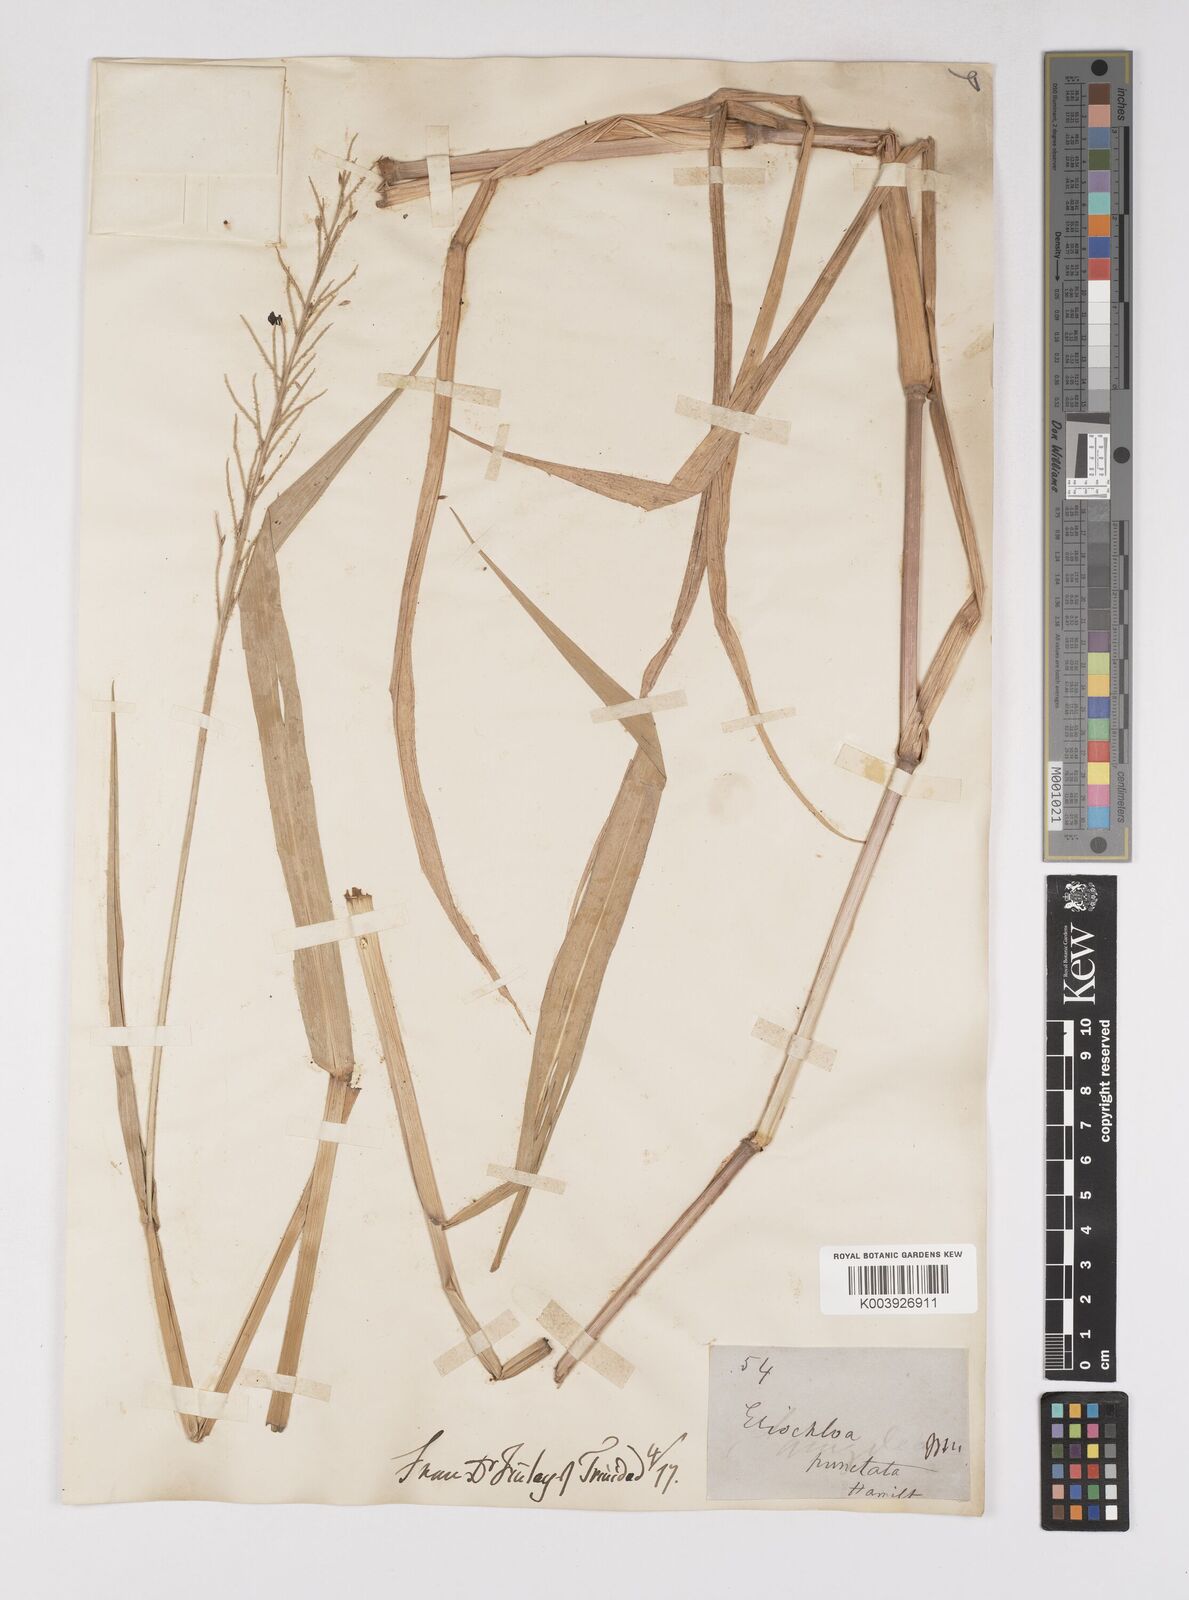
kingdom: Plantae
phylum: Tracheophyta
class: Liliopsida
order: Poales
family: Poaceae
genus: Eriochloa
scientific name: Eriochloa punctata
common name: Louisiana cupgrass
